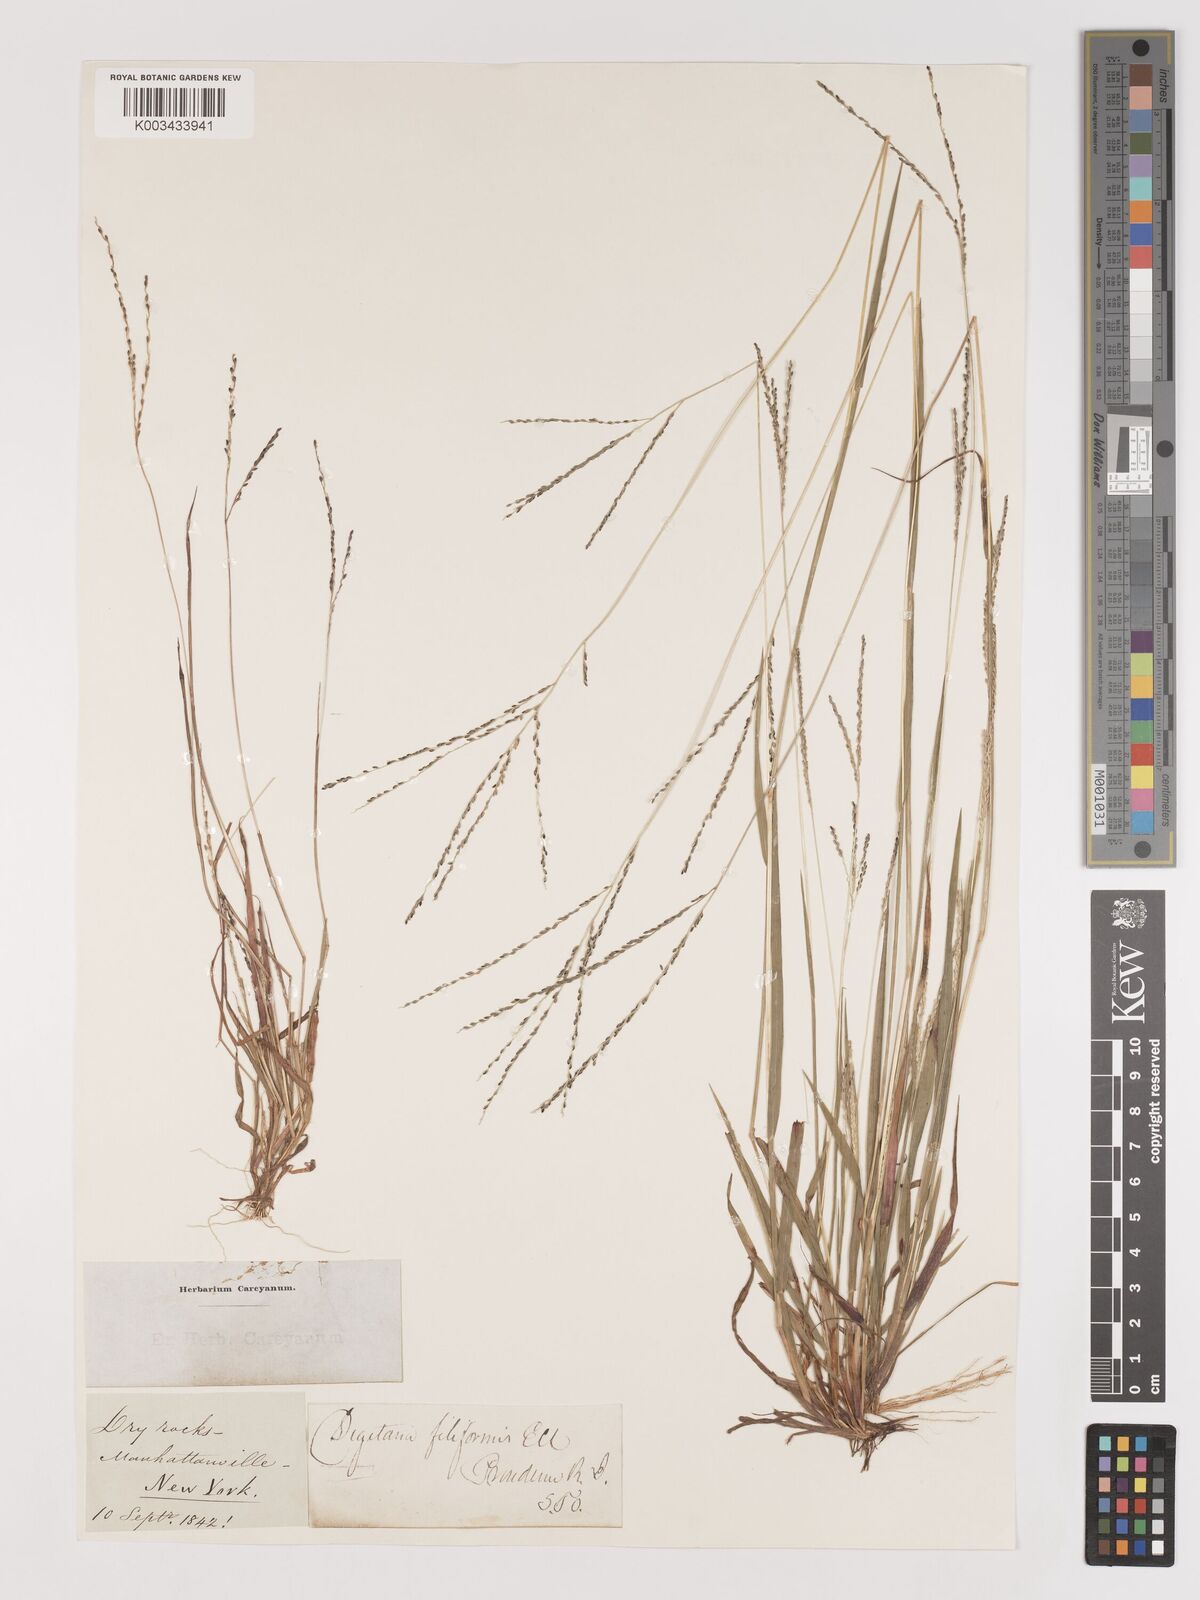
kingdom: Plantae
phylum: Tracheophyta
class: Liliopsida
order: Poales
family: Poaceae
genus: Digitaria
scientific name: Digitaria filiformis
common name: Slender crabgrass
